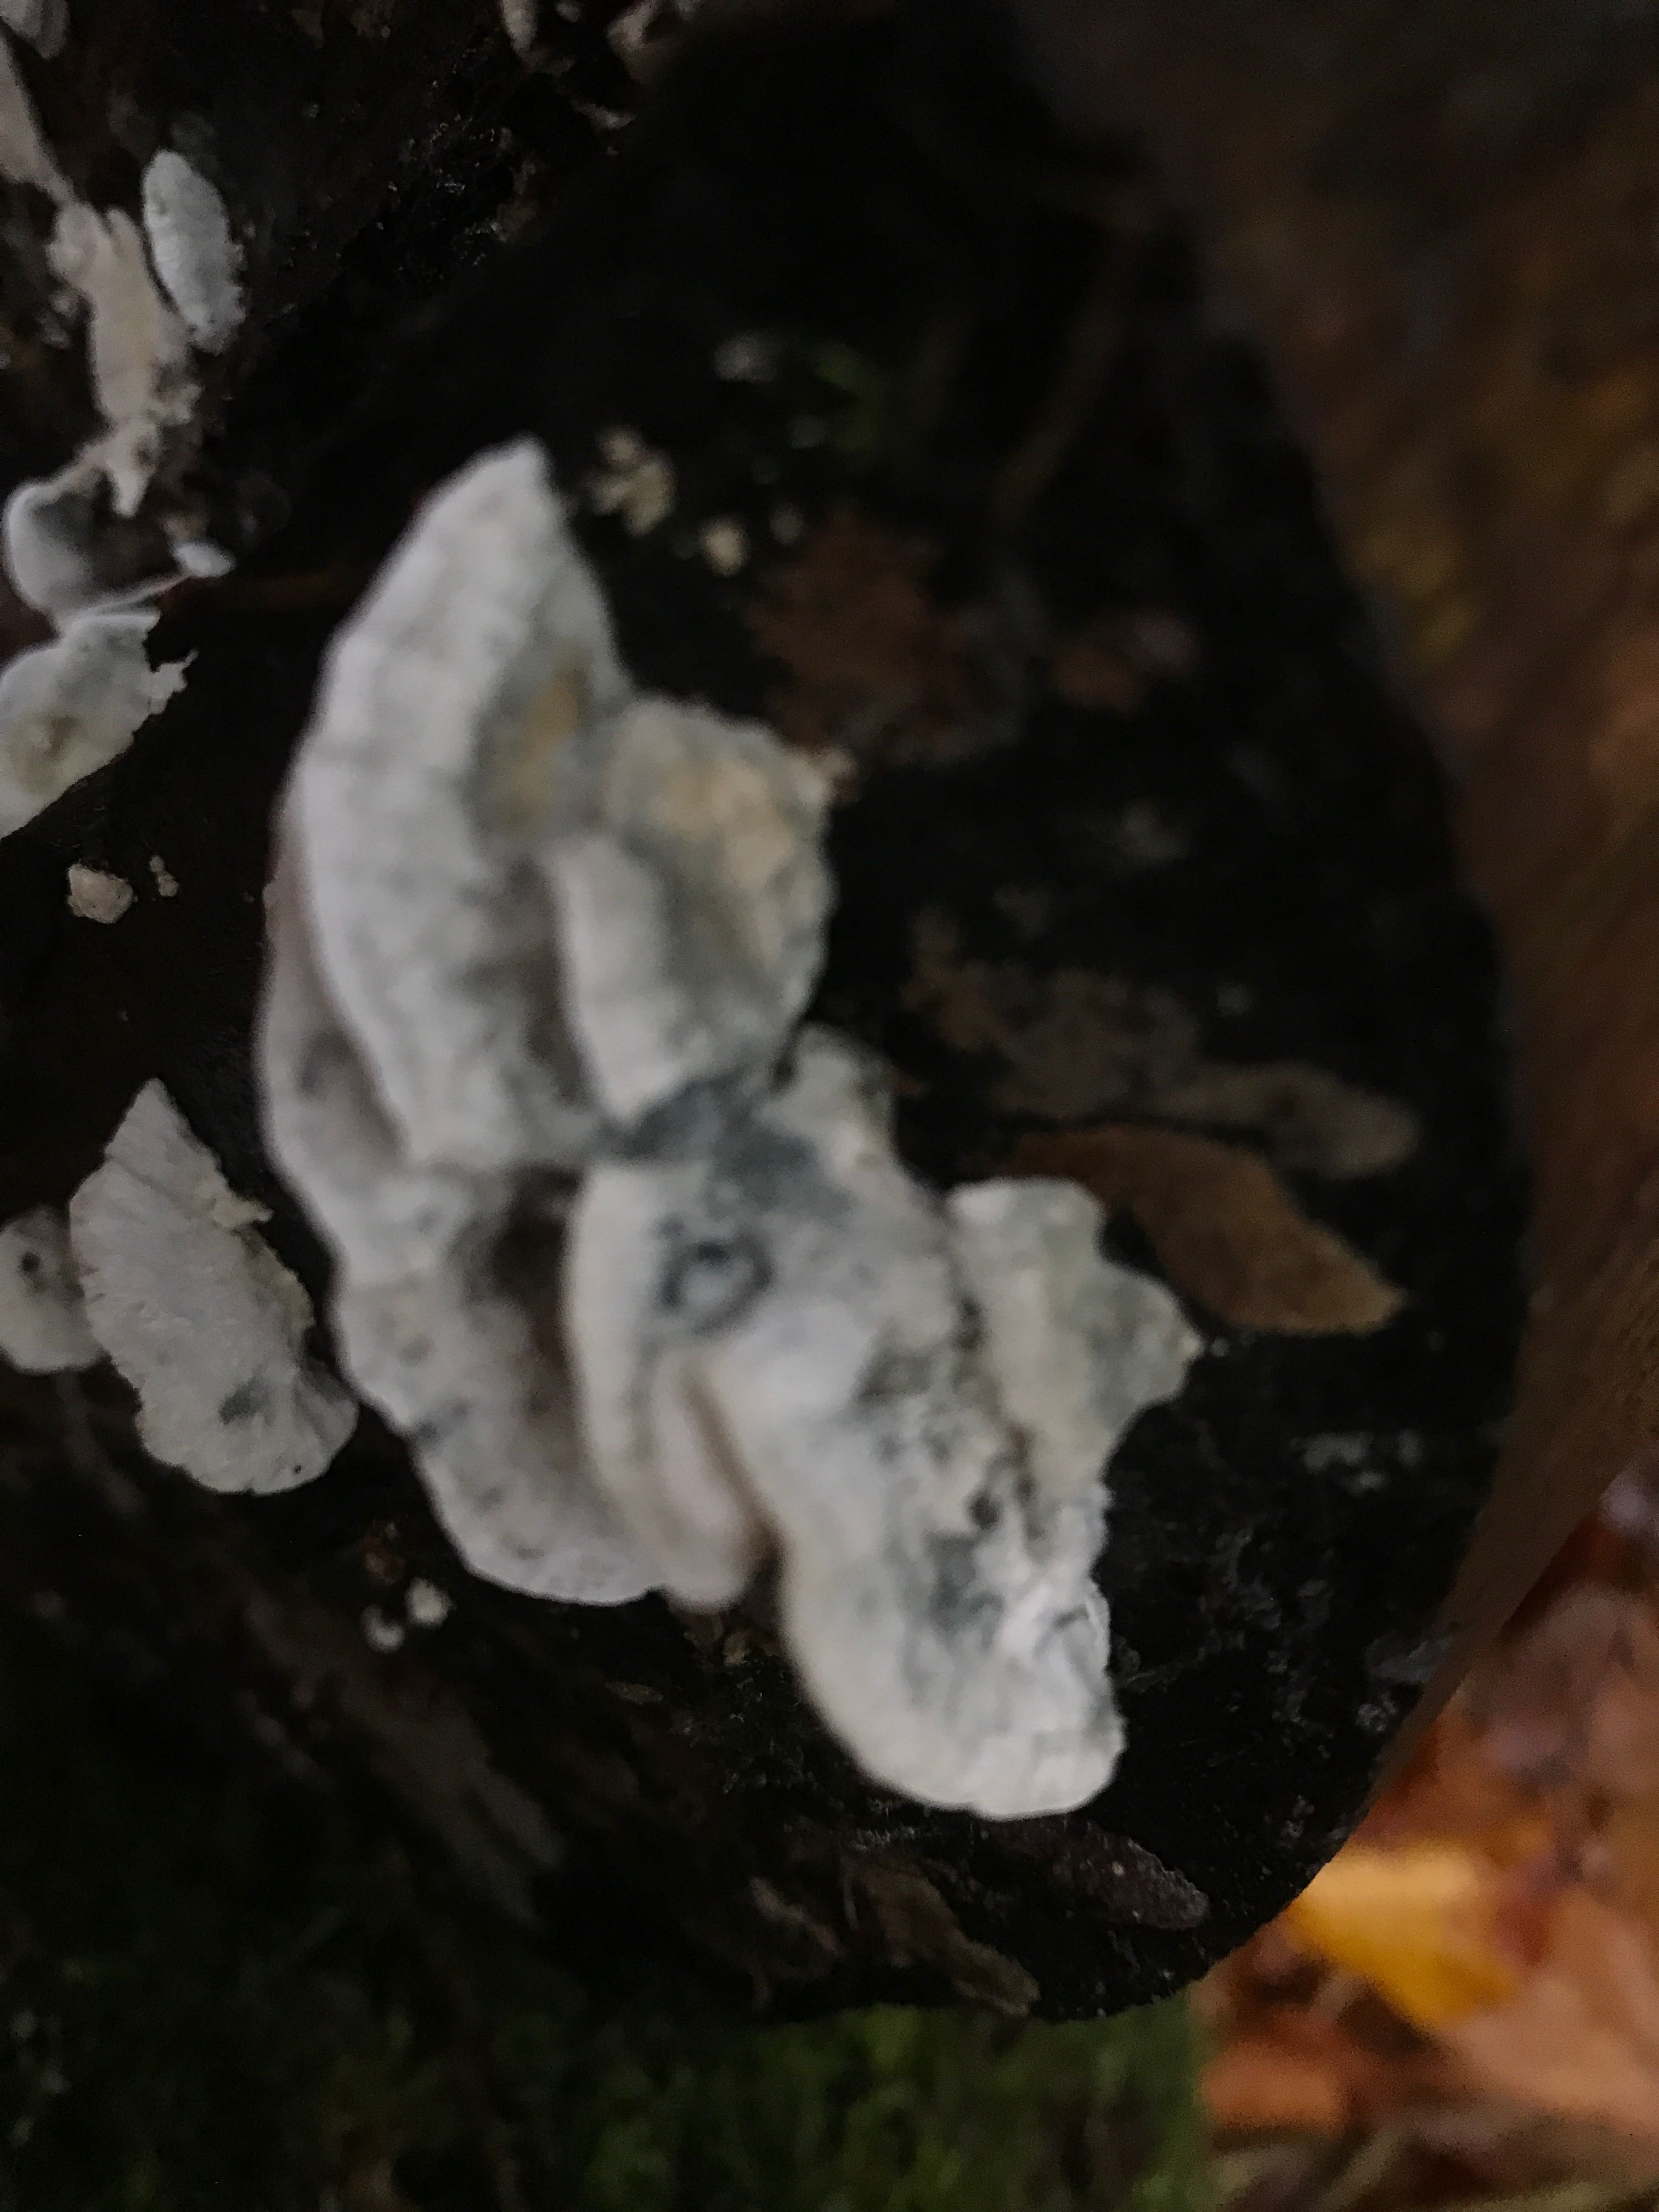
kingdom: Fungi
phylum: Basidiomycota
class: Agaricomycetes
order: Polyporales
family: Dacryobolaceae
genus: Postia
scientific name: Postia
